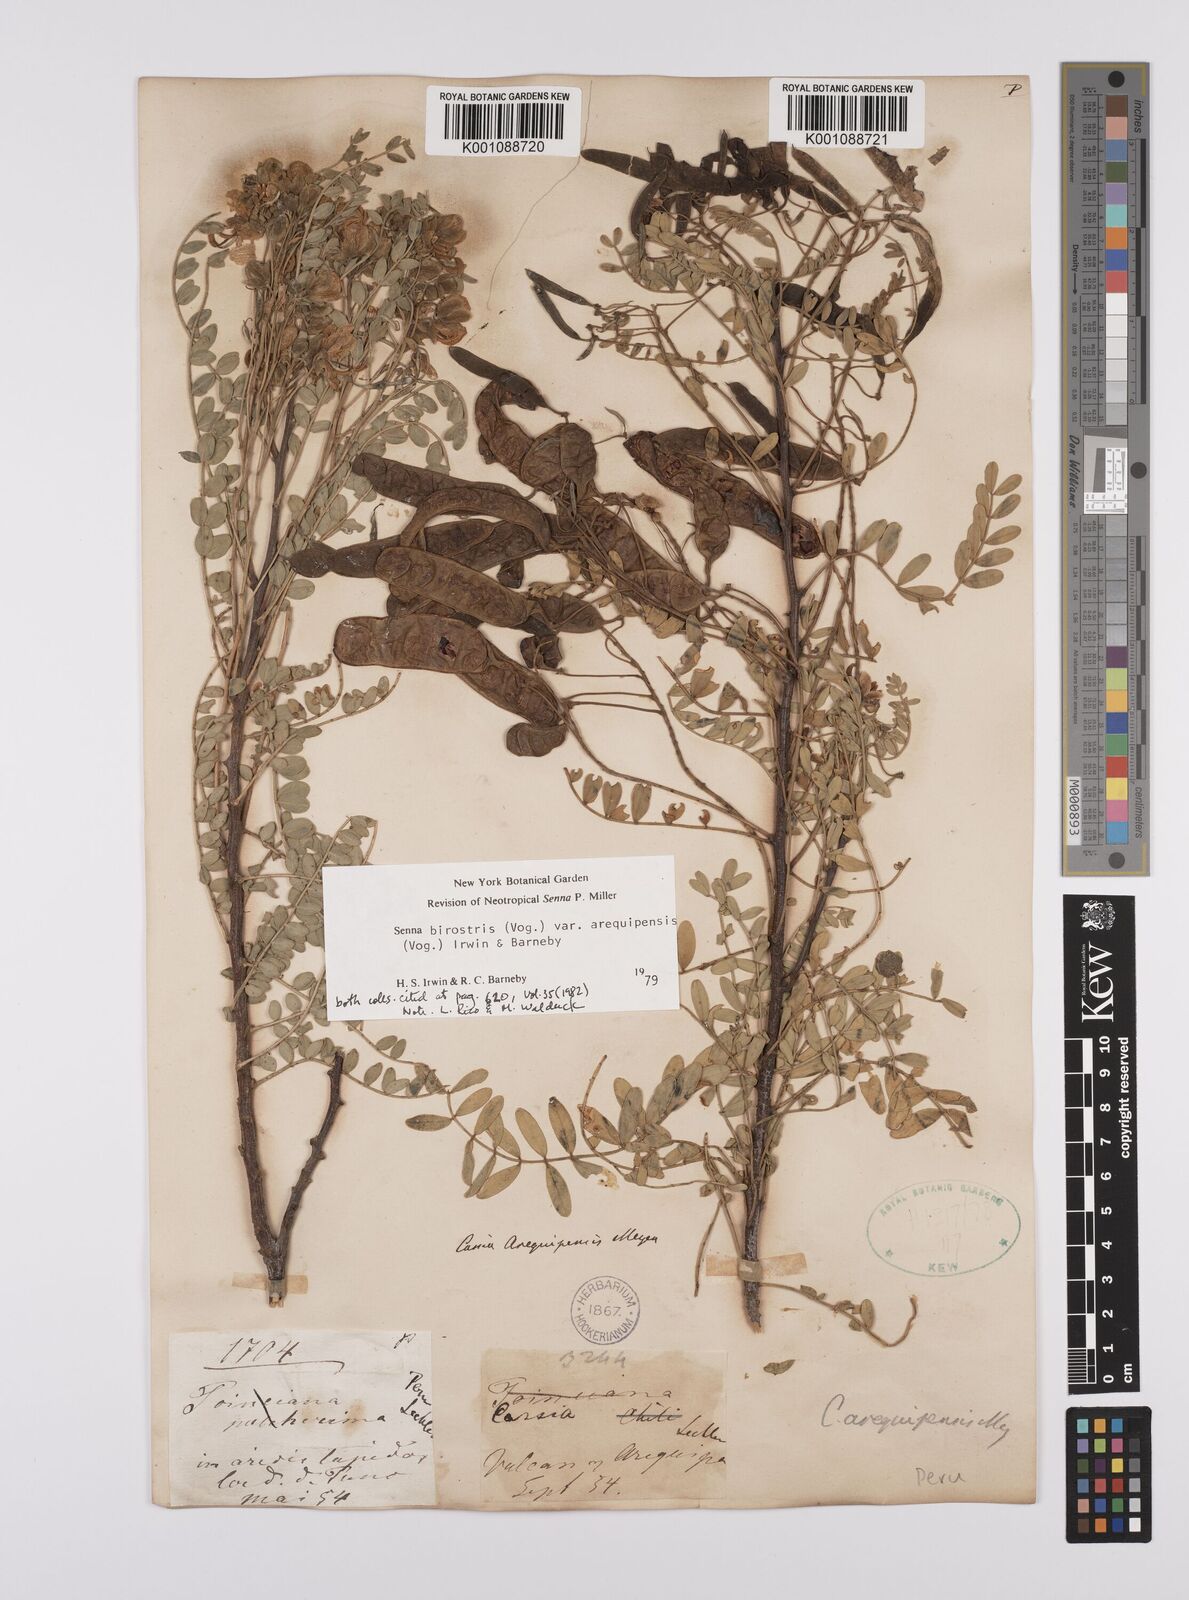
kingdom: Plantae
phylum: Tracheophyta
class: Magnoliopsida
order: Fabales
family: Fabaceae
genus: Senna
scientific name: Senna birostris
